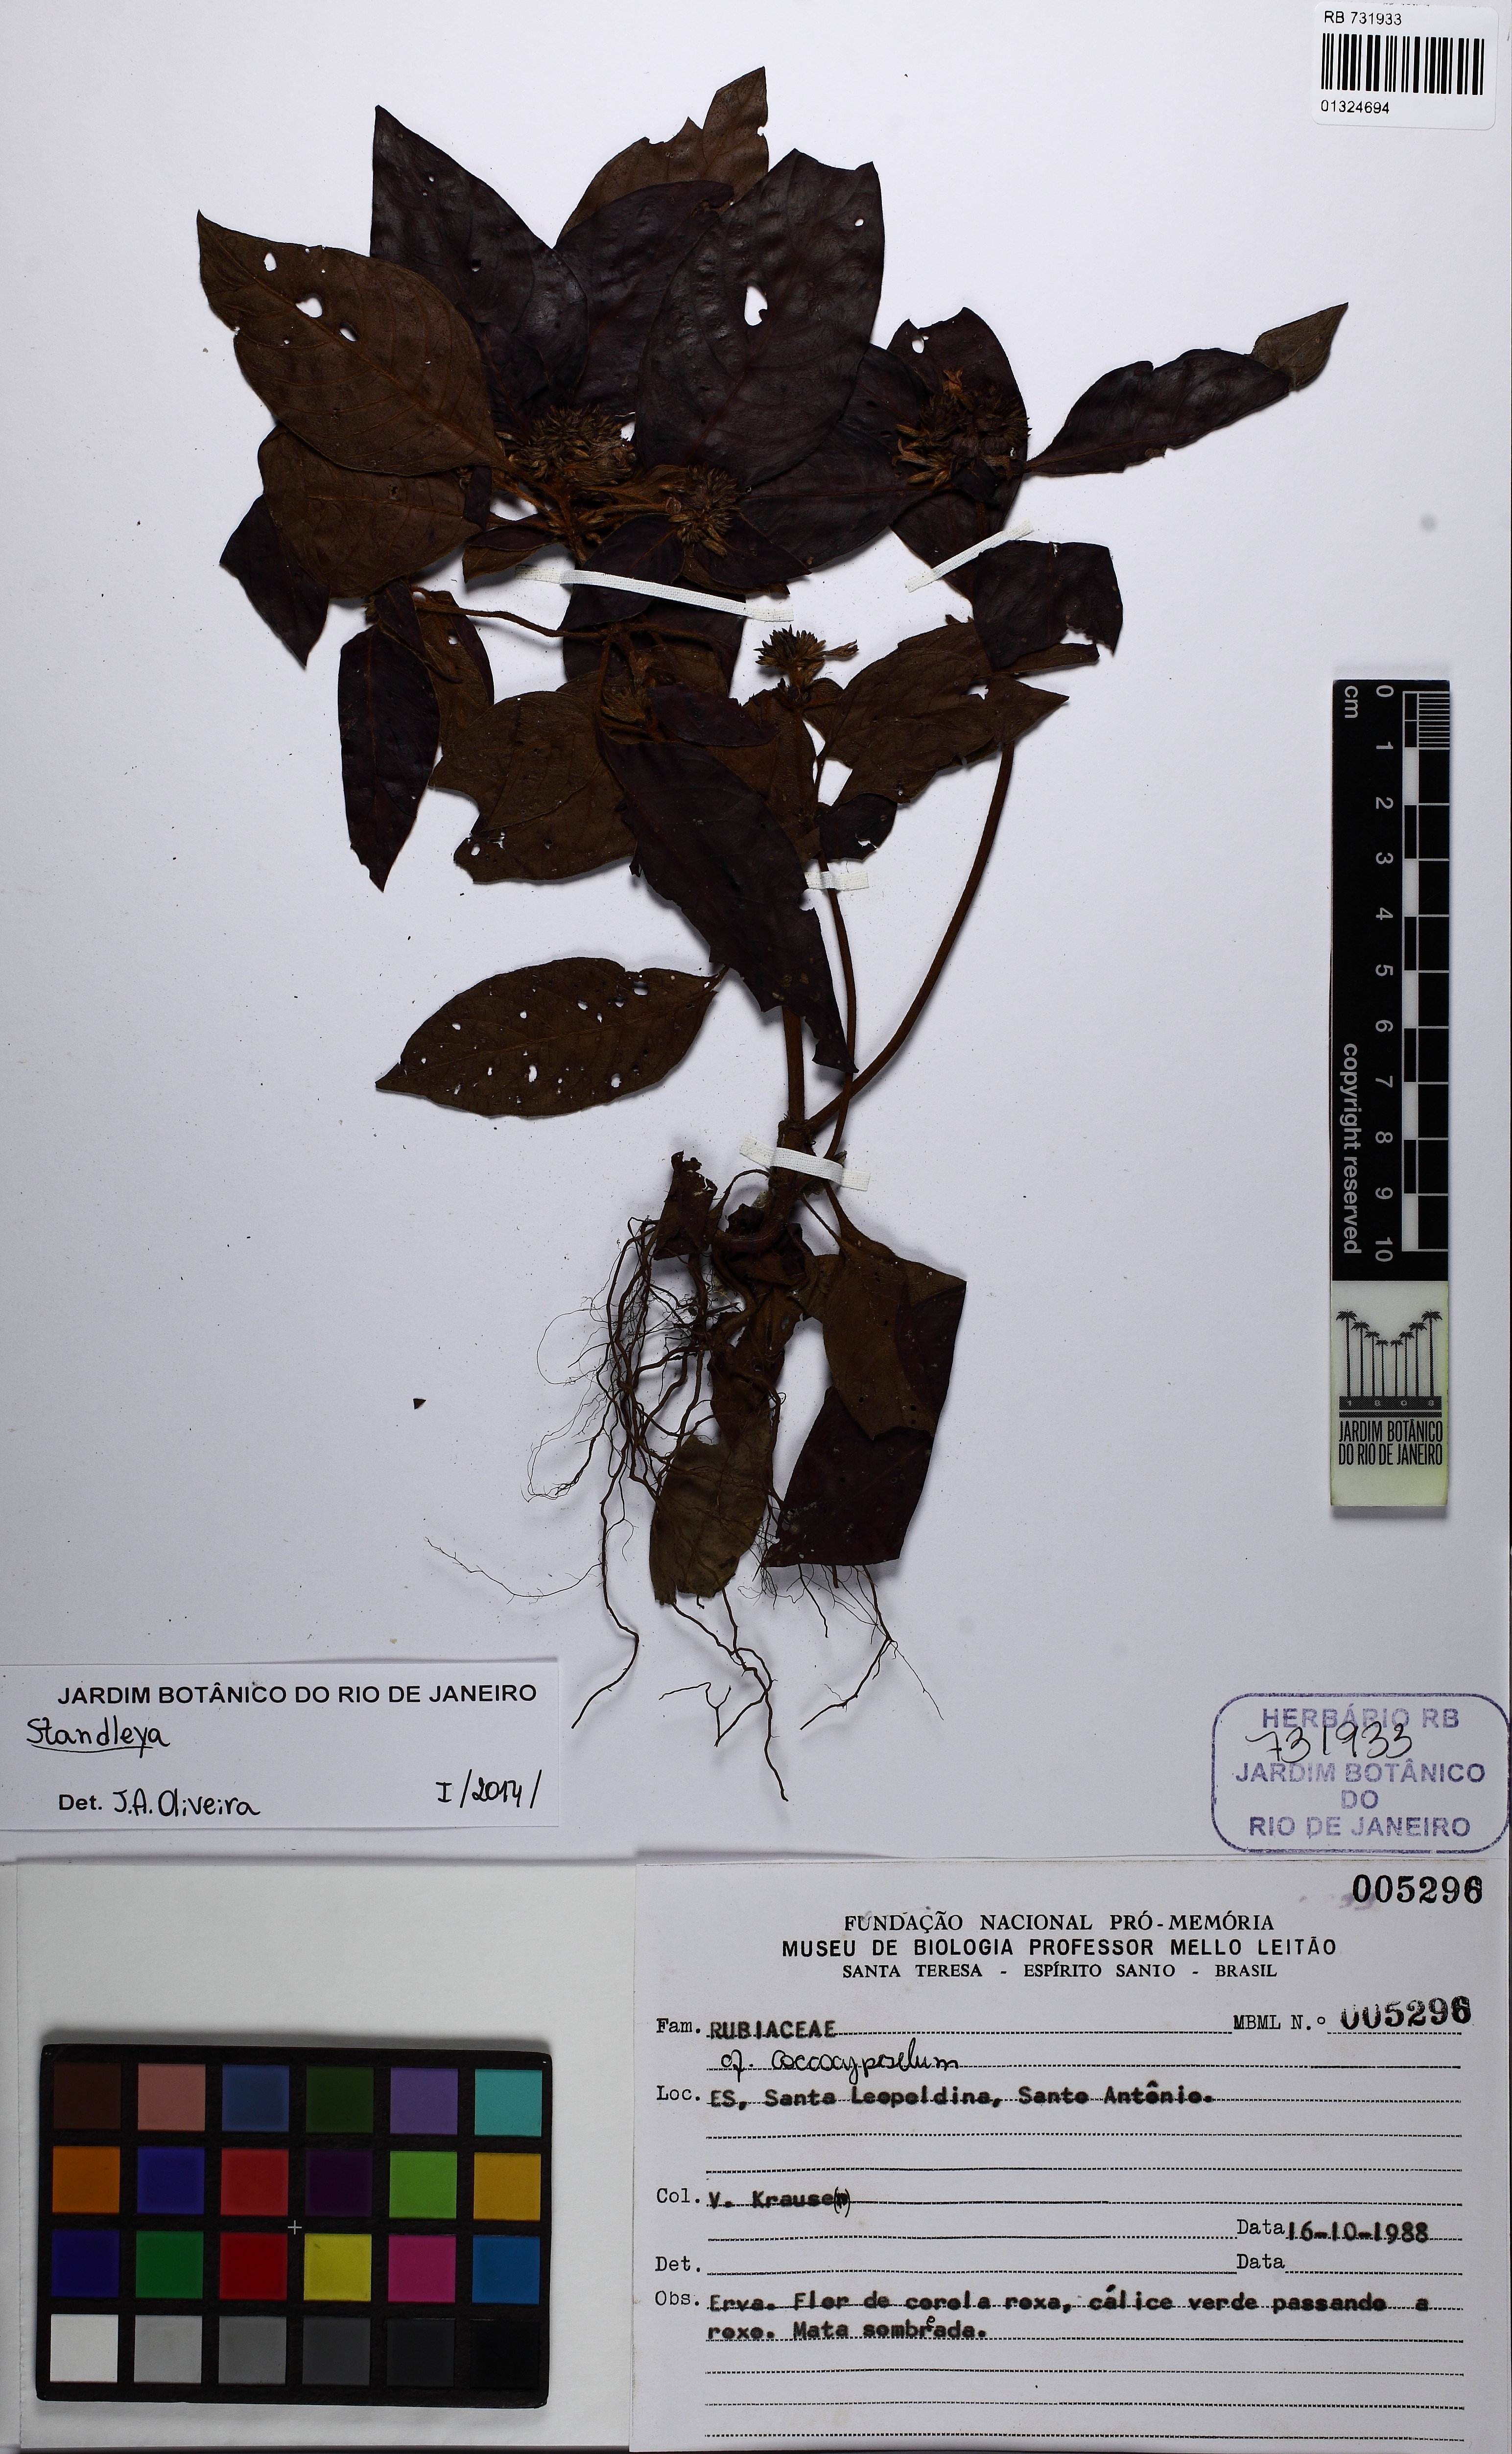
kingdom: Plantae
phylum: Tracheophyta
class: Magnoliopsida
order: Gentianales
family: Rubiaceae
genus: Standleya
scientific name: Standleya
